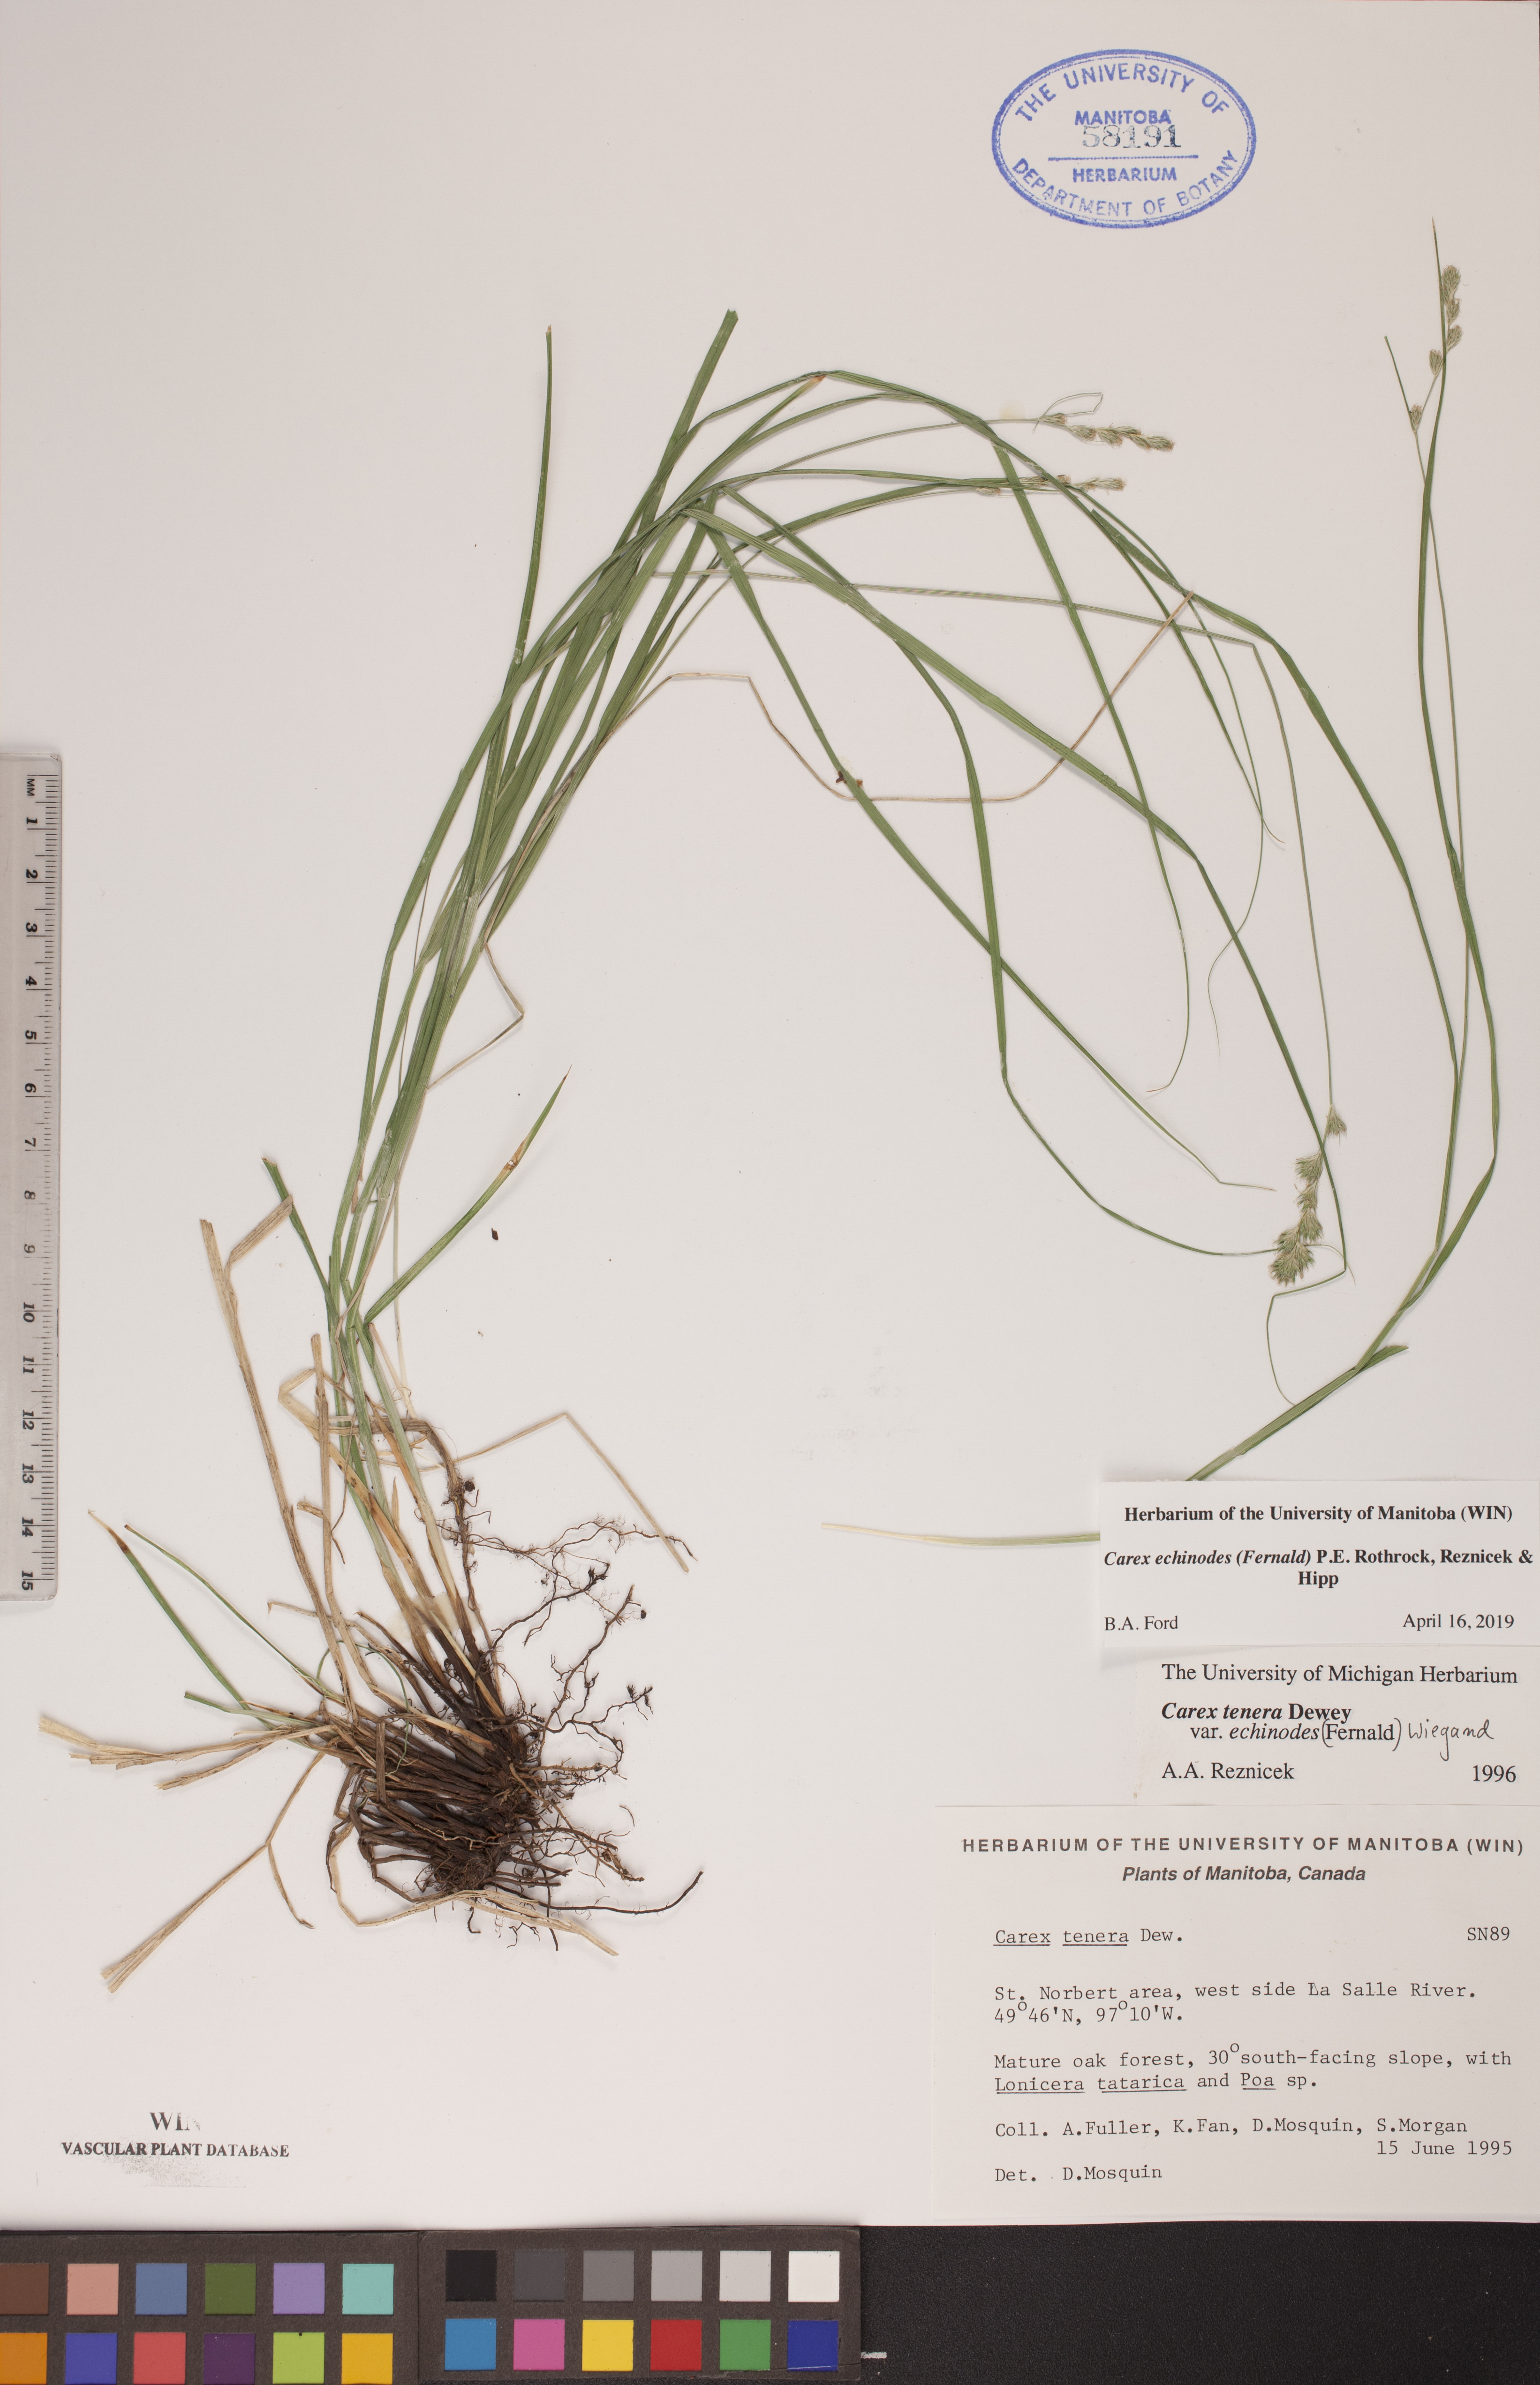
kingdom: Plantae
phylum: Tracheophyta
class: Liliopsida
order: Poales
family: Cyperaceae
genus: Carex
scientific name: Carex echinodes
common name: Marsh straw sedge
